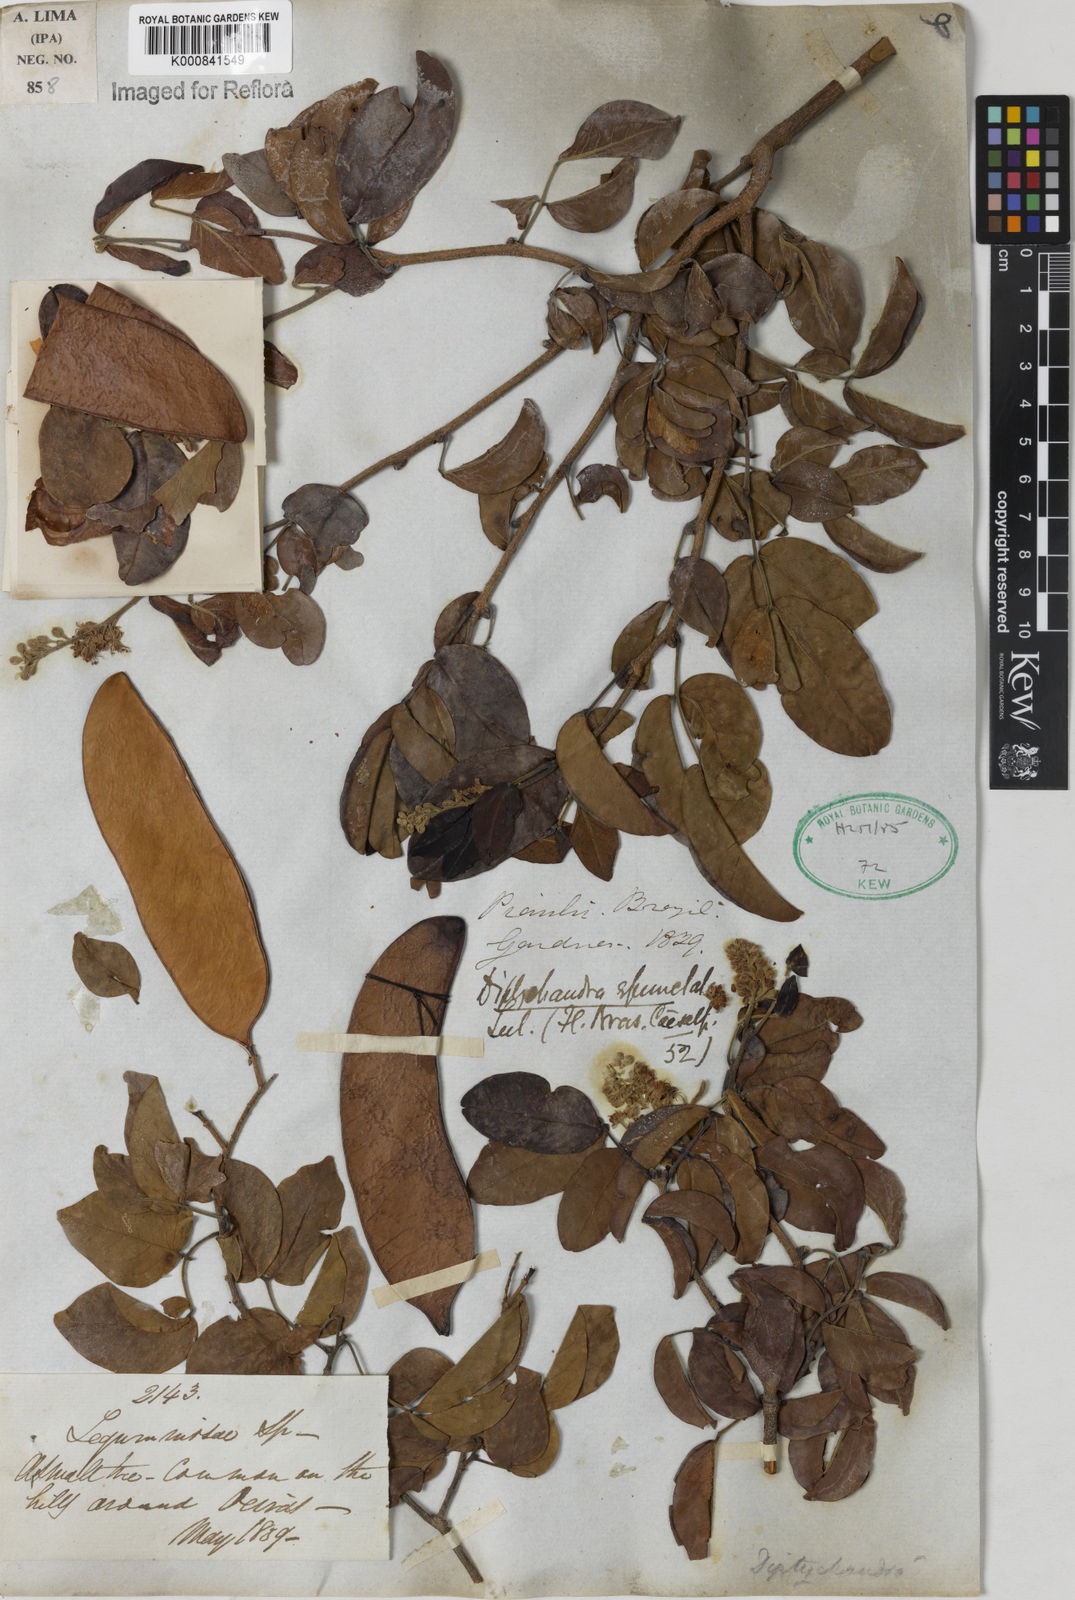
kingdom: Plantae
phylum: Tracheophyta
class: Magnoliopsida
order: Fabales
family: Fabaceae
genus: Diptychandra
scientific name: Diptychandra aurantiaca
